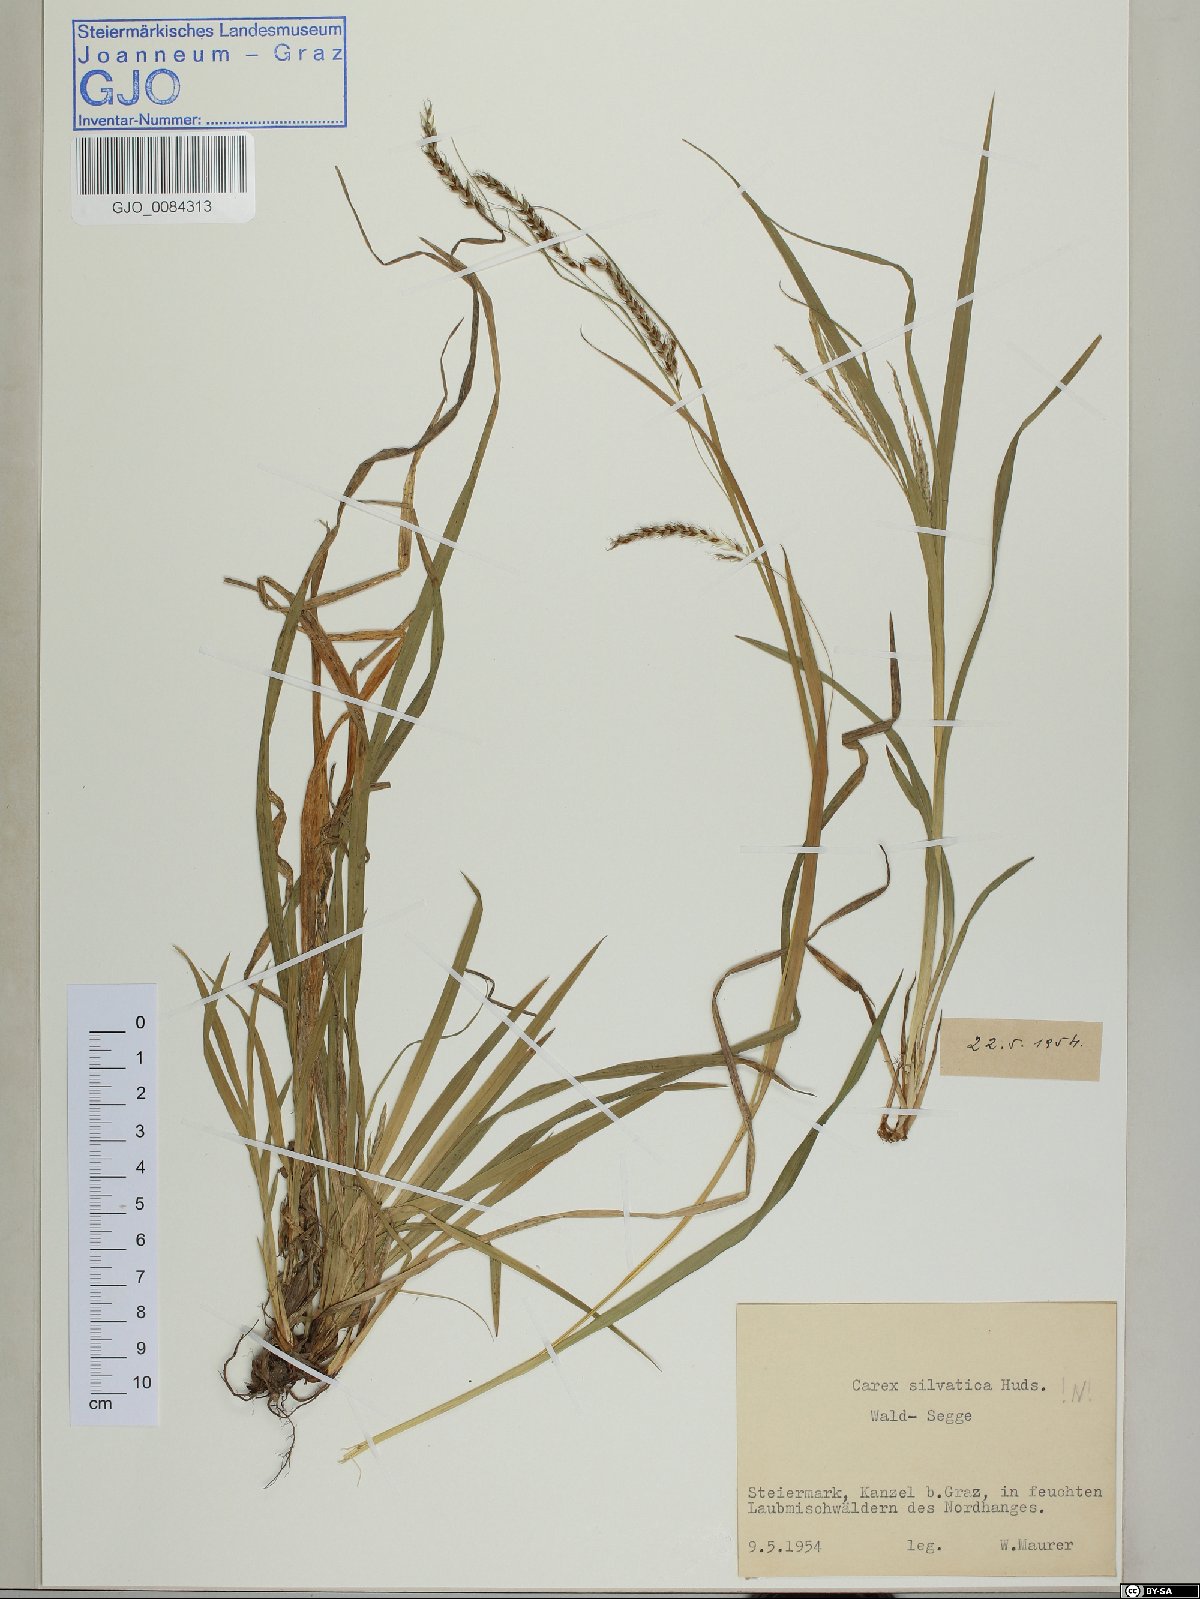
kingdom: Plantae
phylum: Tracheophyta
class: Liliopsida
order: Poales
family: Cyperaceae
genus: Carex
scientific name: Carex sylvatica
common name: Wood-sedge
